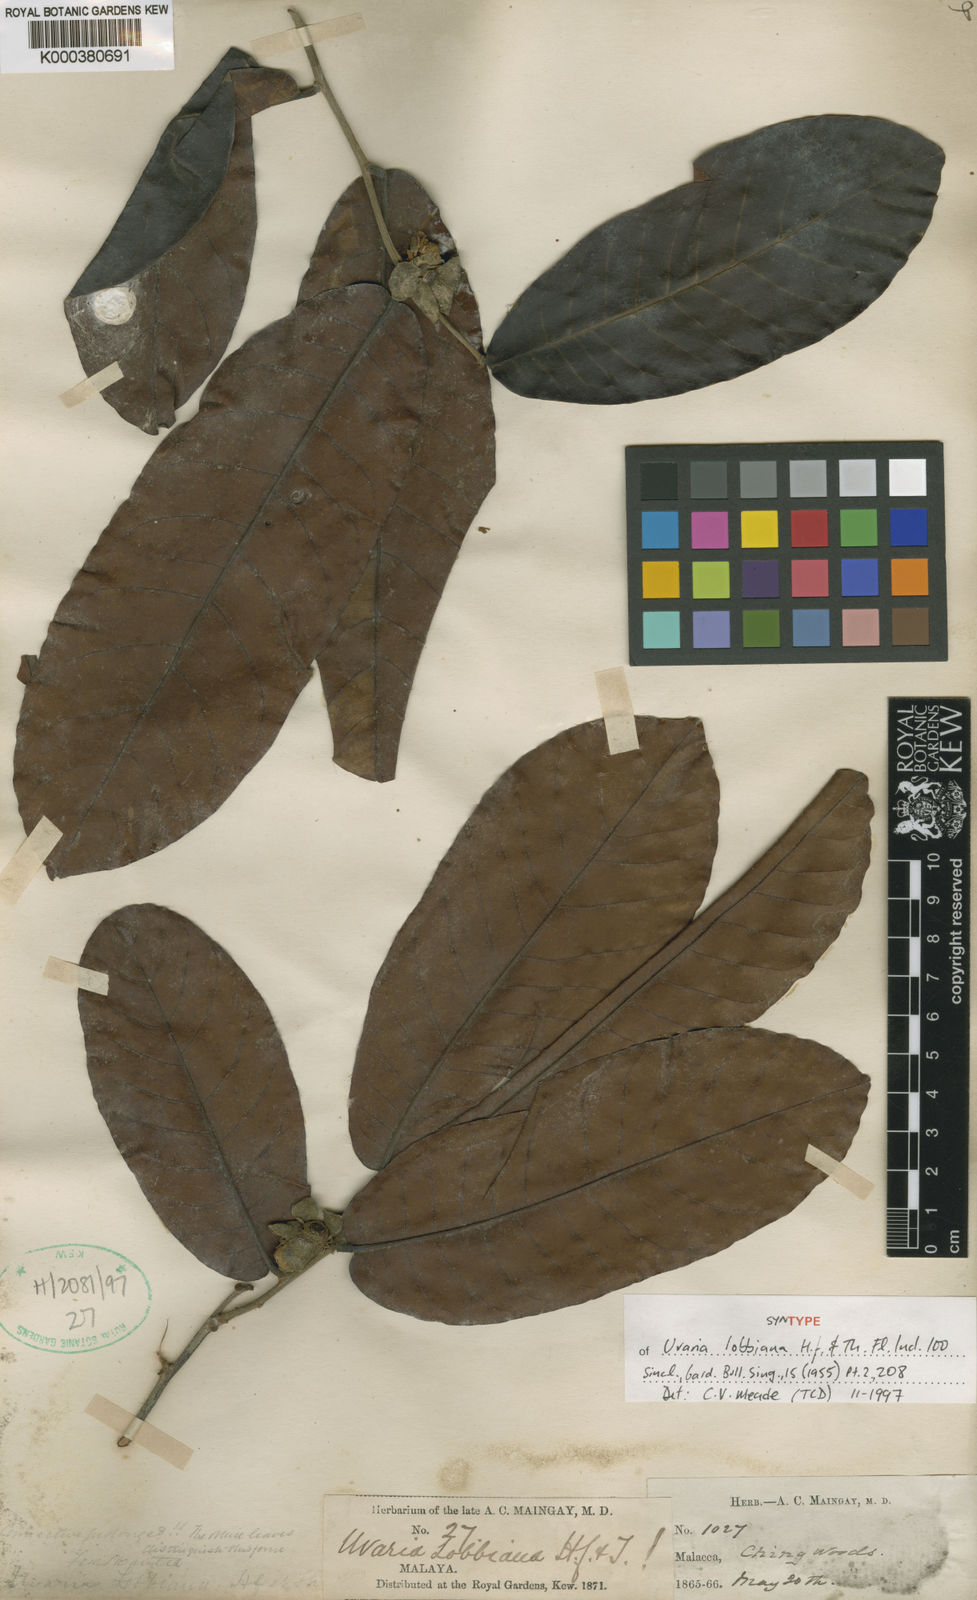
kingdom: Plantae
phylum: Tracheophyta
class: Magnoliopsida
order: Magnoliales
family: Annonaceae
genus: Uvaria
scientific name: Uvaria lobbiana
